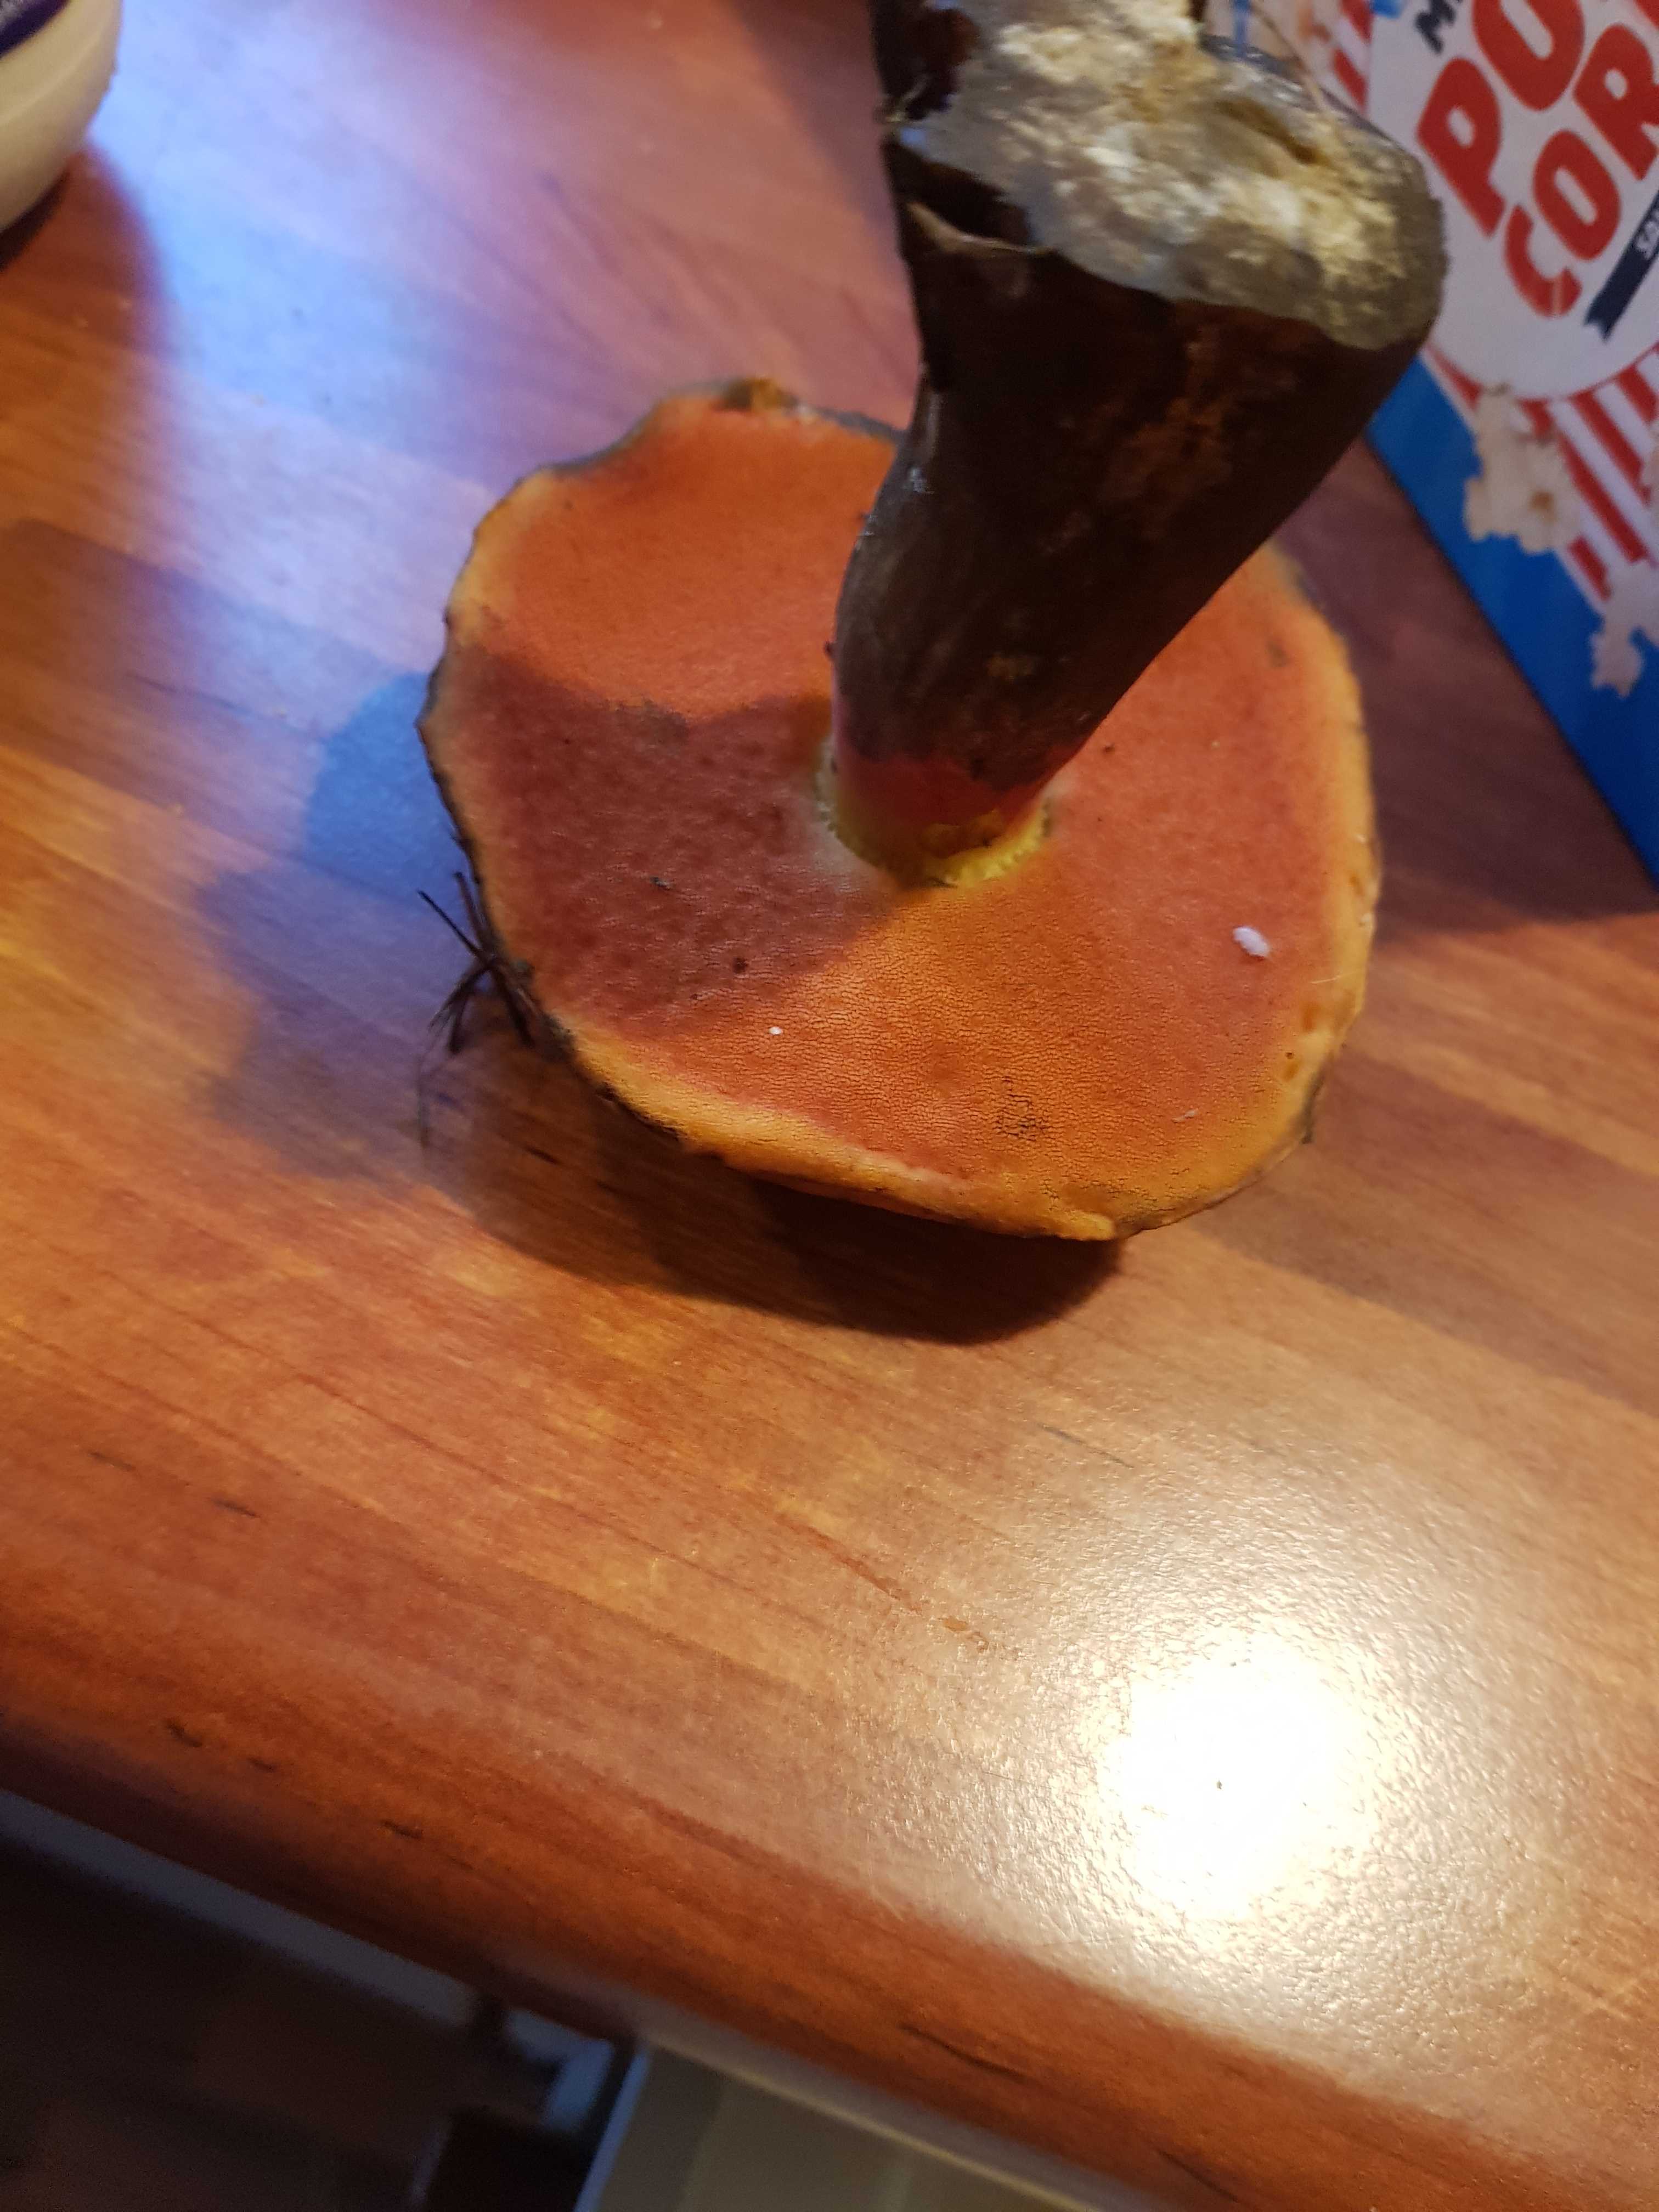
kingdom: Fungi
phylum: Basidiomycota
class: Agaricomycetes
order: Boletales
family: Boletaceae
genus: Neoboletus
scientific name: Neoboletus erythropus
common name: punktstokket indigorørhat
